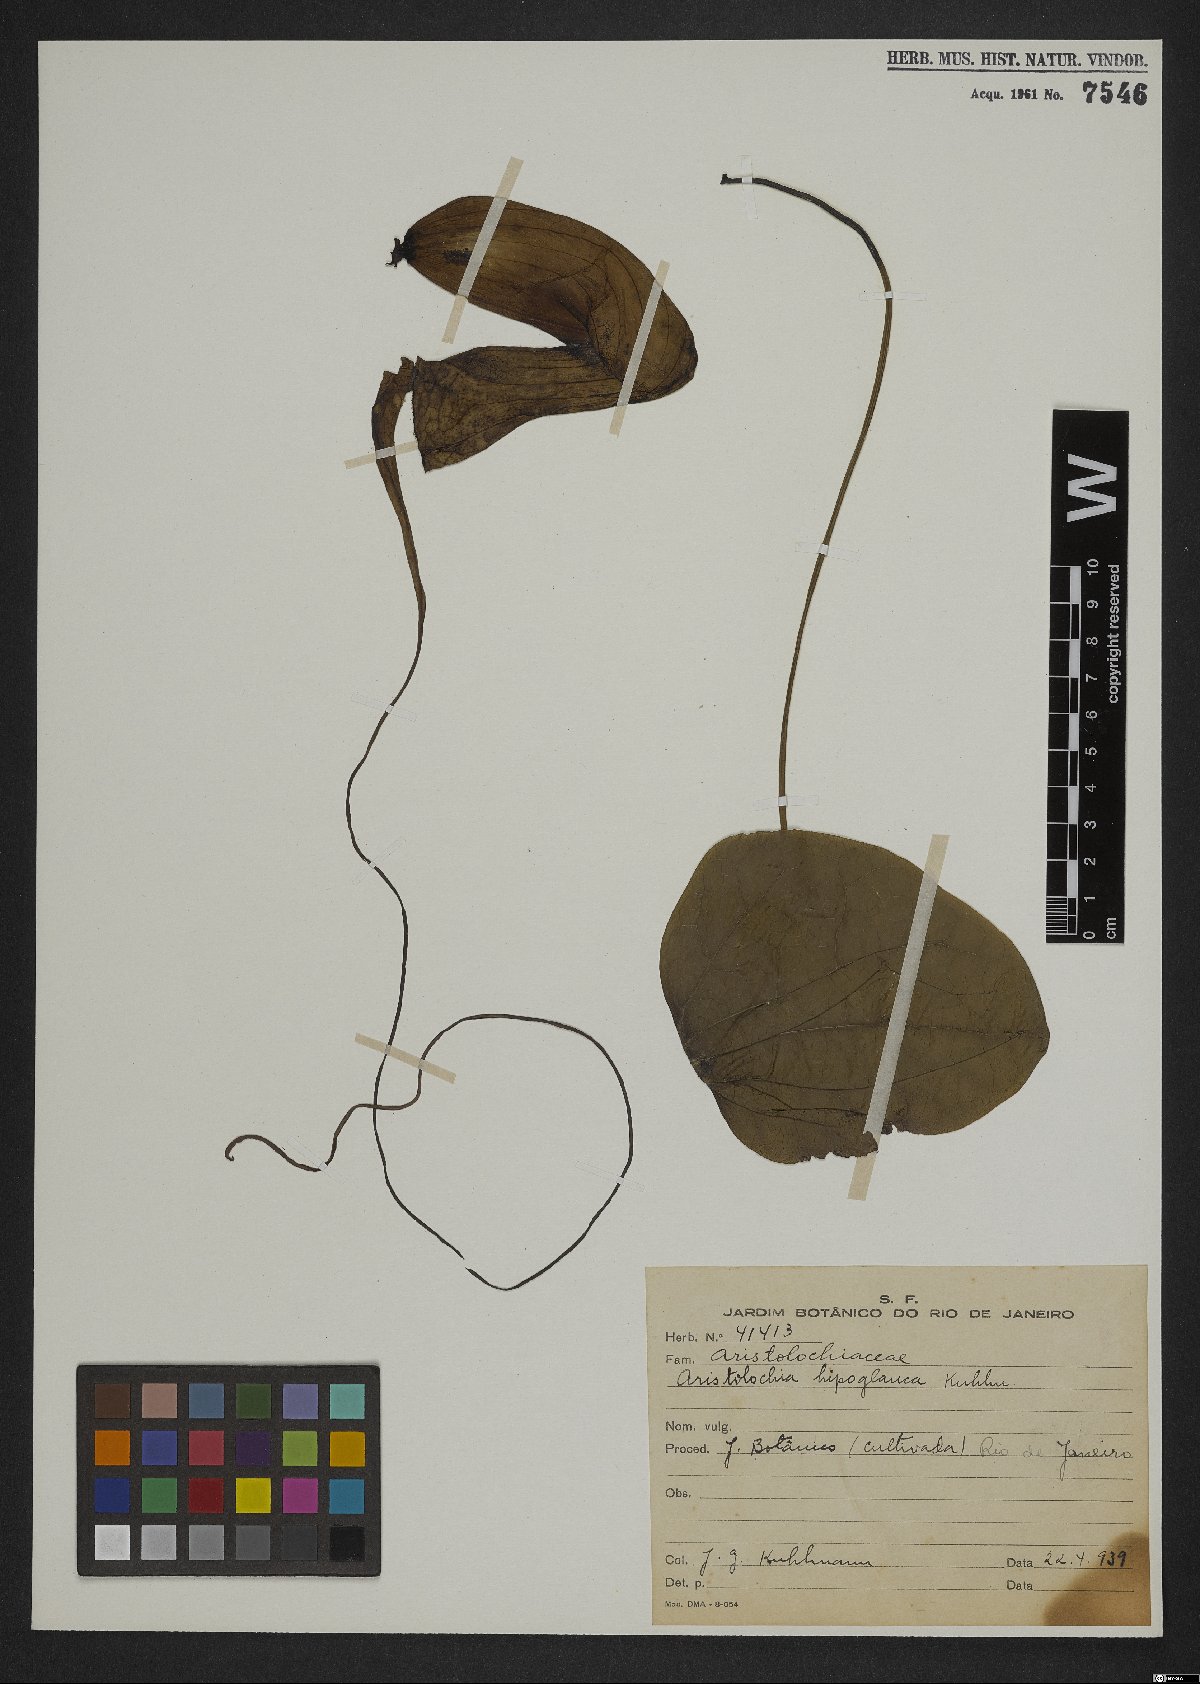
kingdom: Plantae
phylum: Tracheophyta
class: Magnoliopsida
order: Piperales
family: Aristolochiaceae
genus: Aristolochia
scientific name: Aristolochia hypoglauca
